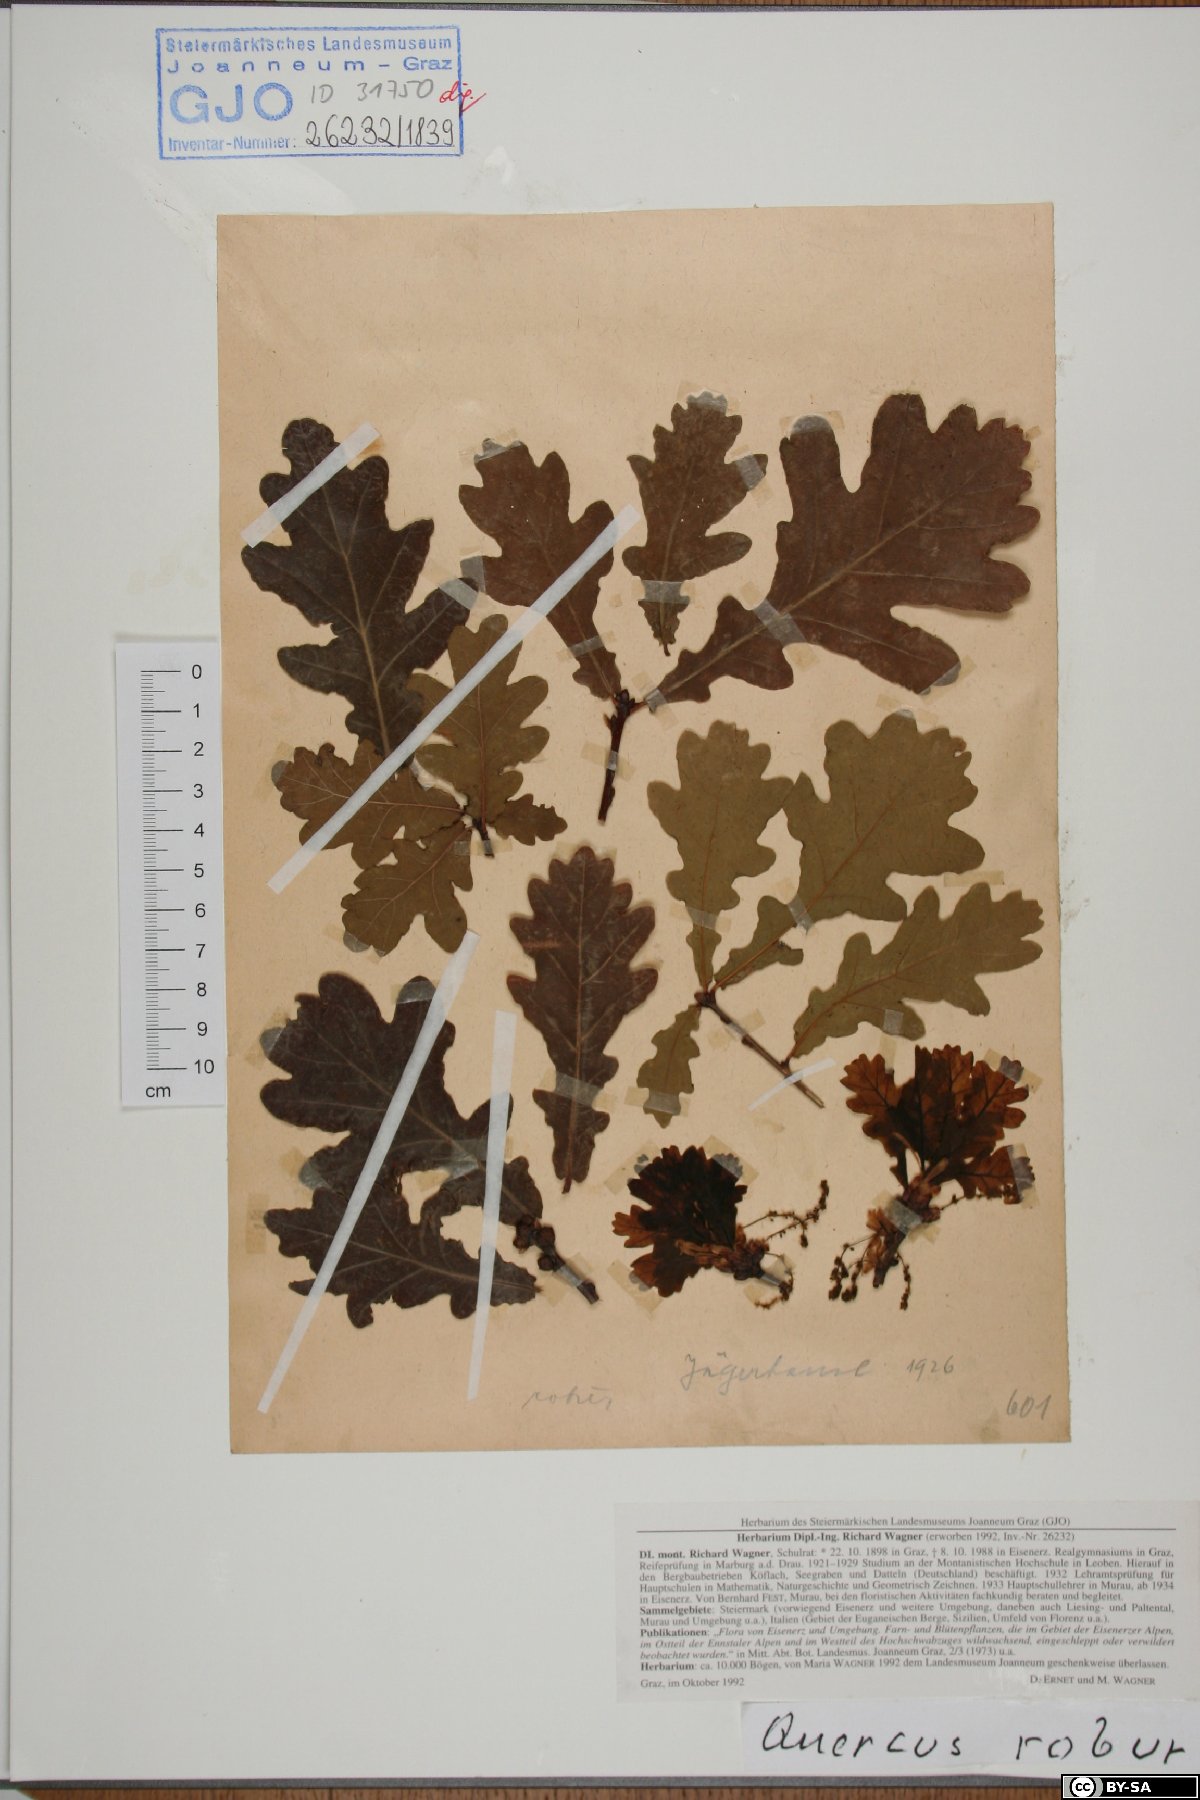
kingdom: Plantae
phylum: Tracheophyta
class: Magnoliopsida
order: Fagales
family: Fagaceae
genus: Quercus
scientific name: Quercus robur
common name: Pedunculate oak
